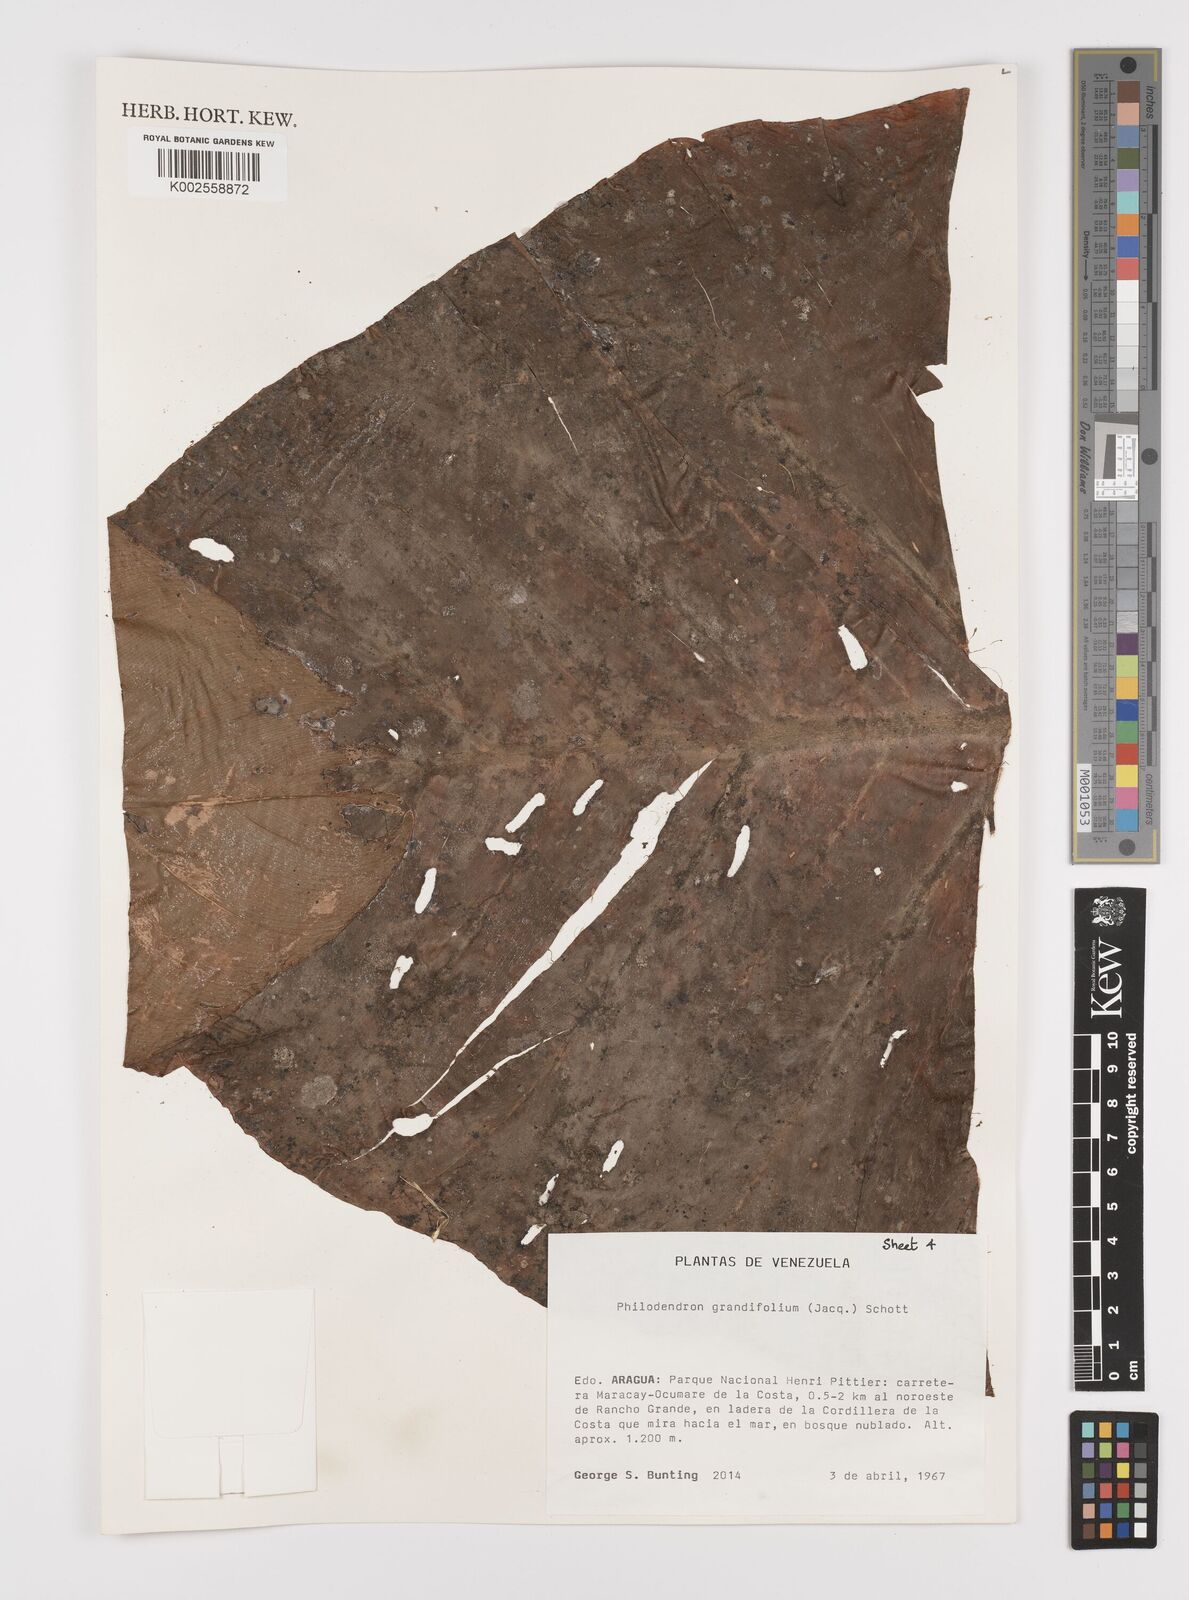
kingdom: Plantae
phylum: Tracheophyta
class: Liliopsida
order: Alismatales
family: Araceae
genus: Philodendron
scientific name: Philodendron grandifolium
